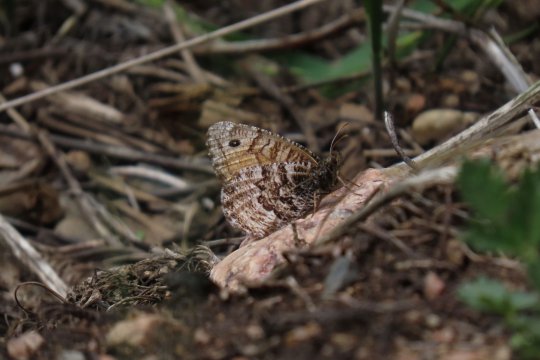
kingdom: Animalia
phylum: Arthropoda
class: Insecta
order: Lepidoptera
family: Nymphalidae
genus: Oeneis
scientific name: Oeneis chryxus
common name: Chryxus Arctic
